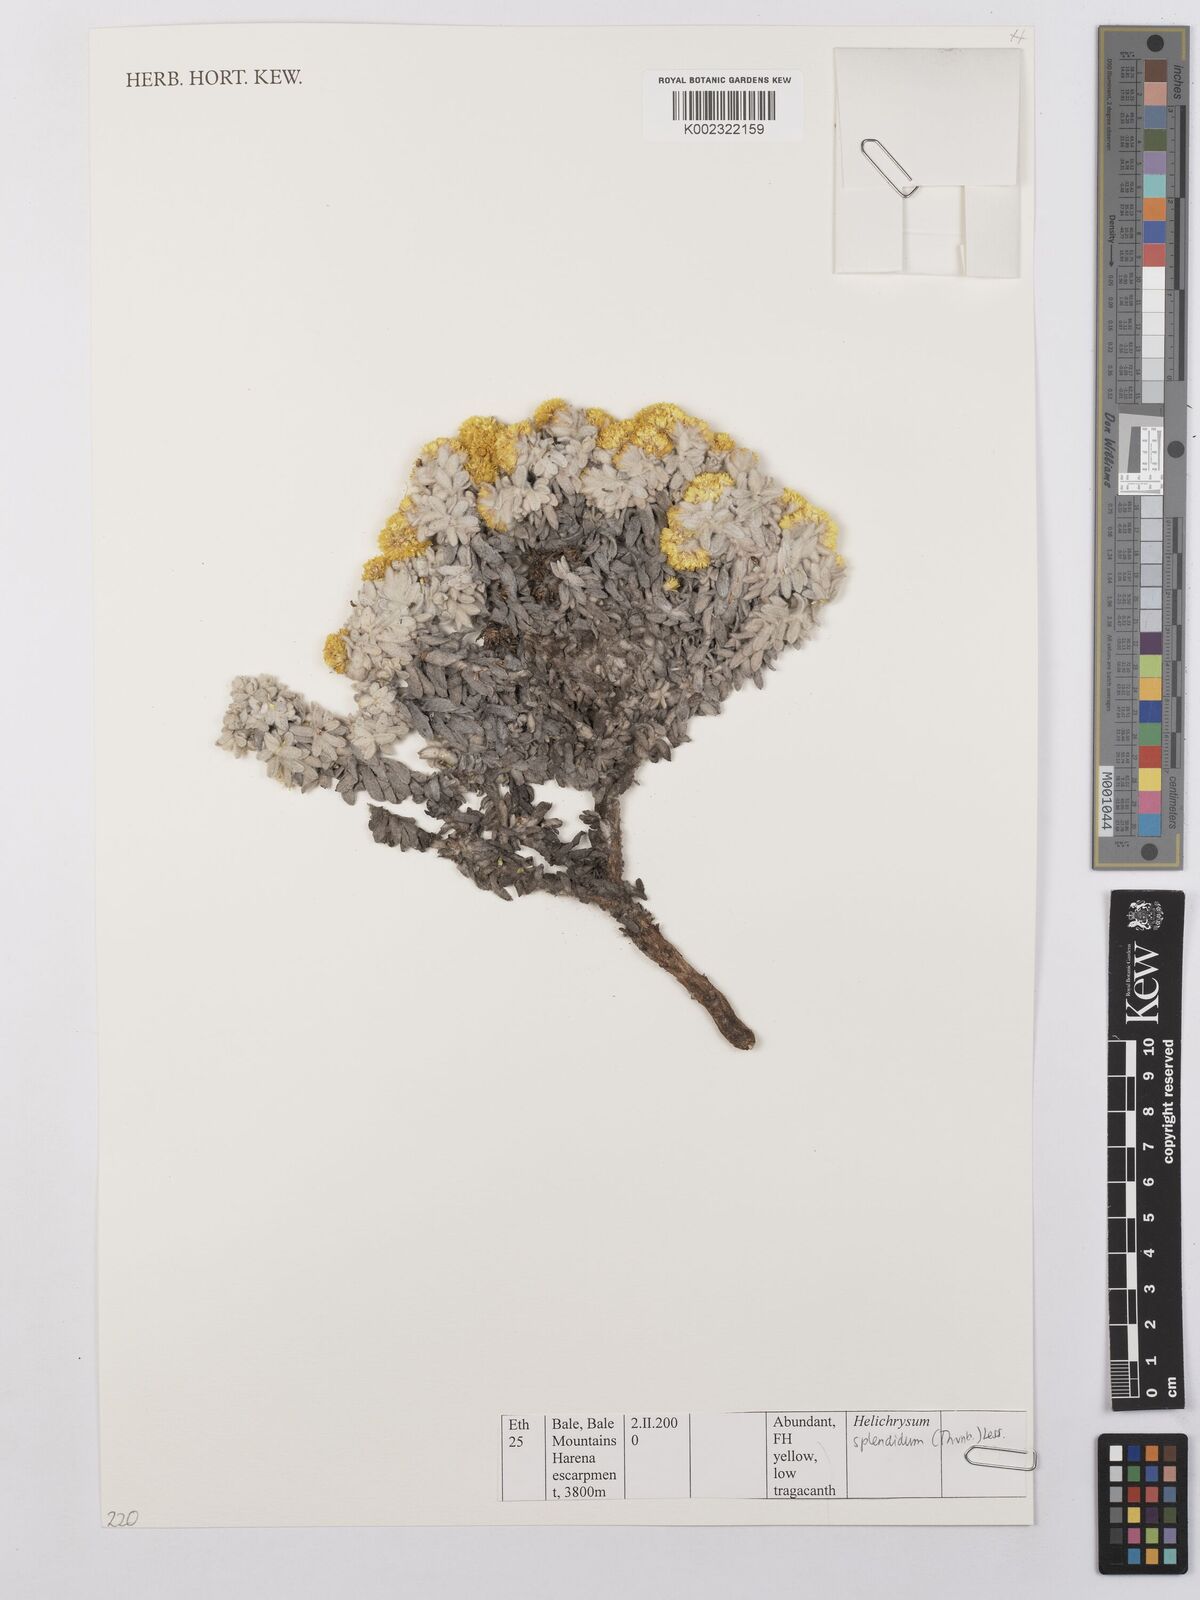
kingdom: Plantae
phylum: Tracheophyta
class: Magnoliopsida
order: Asterales
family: Asteraceae
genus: Helichrysum
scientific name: Helichrysum splendidum
